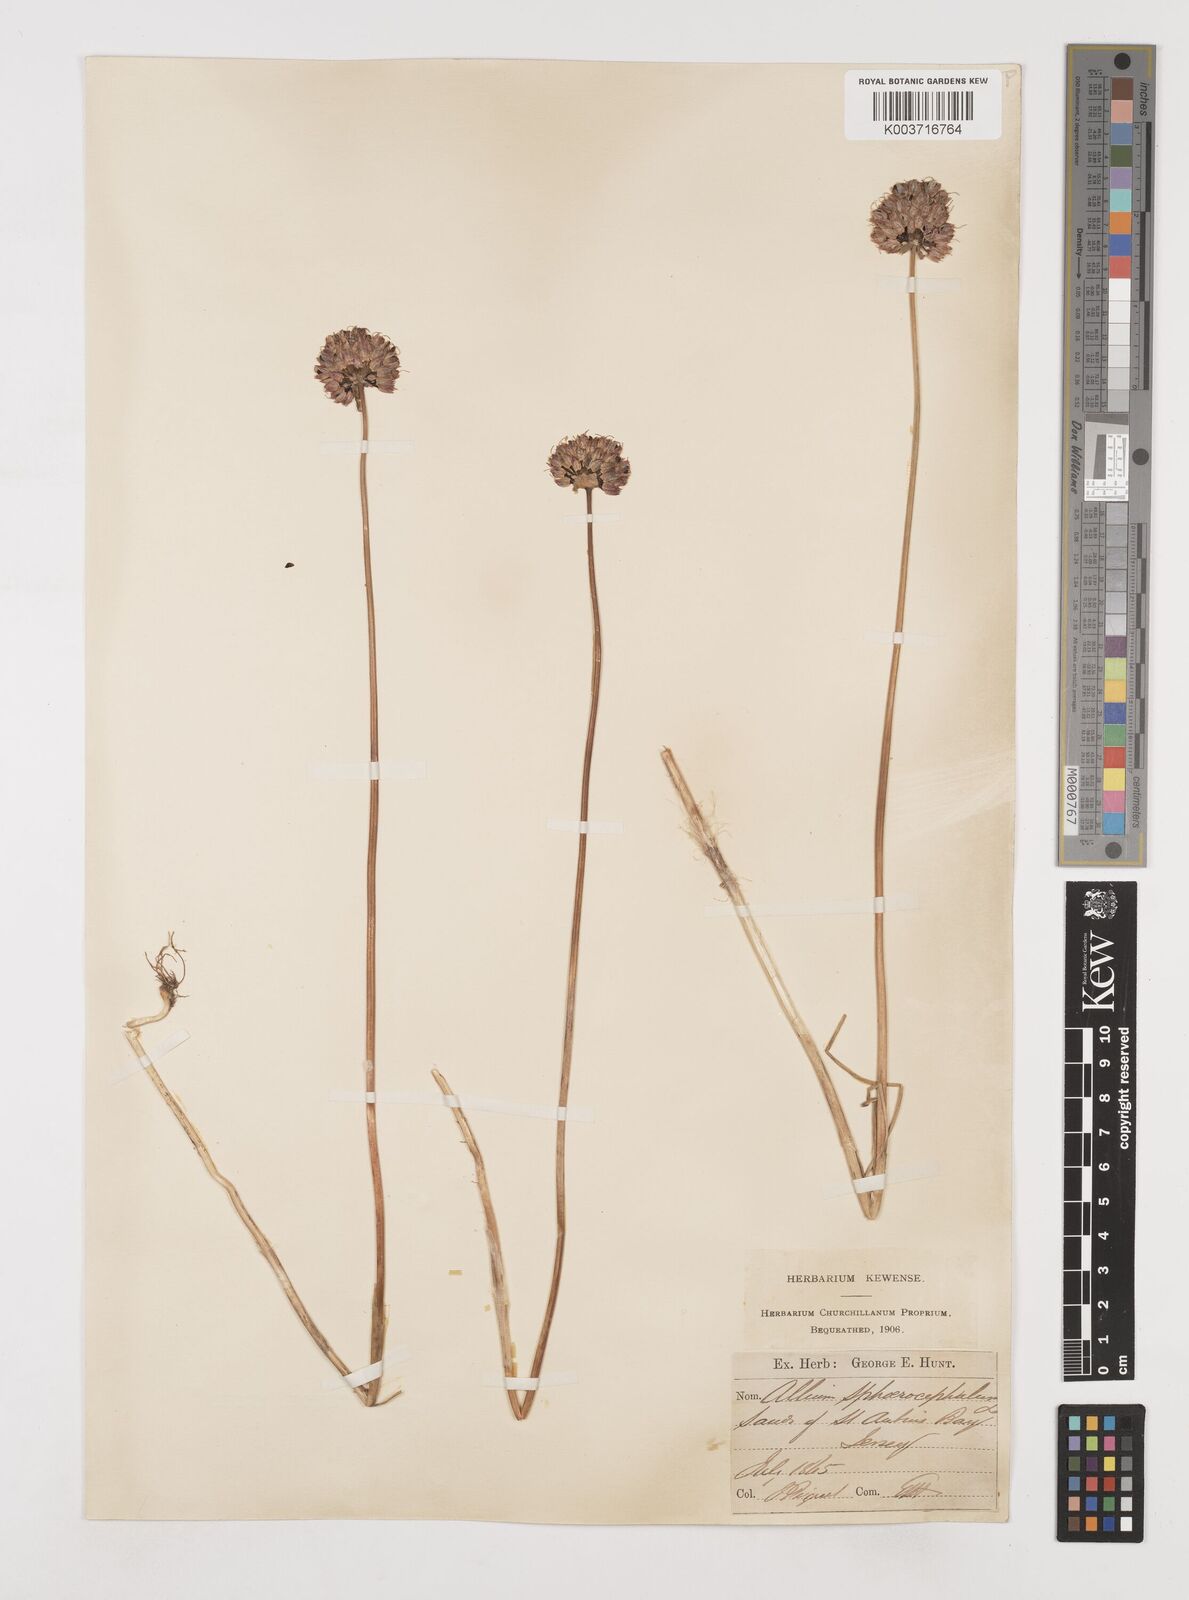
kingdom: Plantae
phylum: Tracheophyta
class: Liliopsida
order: Asparagales
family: Amaryllidaceae
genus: Allium
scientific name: Allium sphaerocephalon
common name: Round-headed leek
